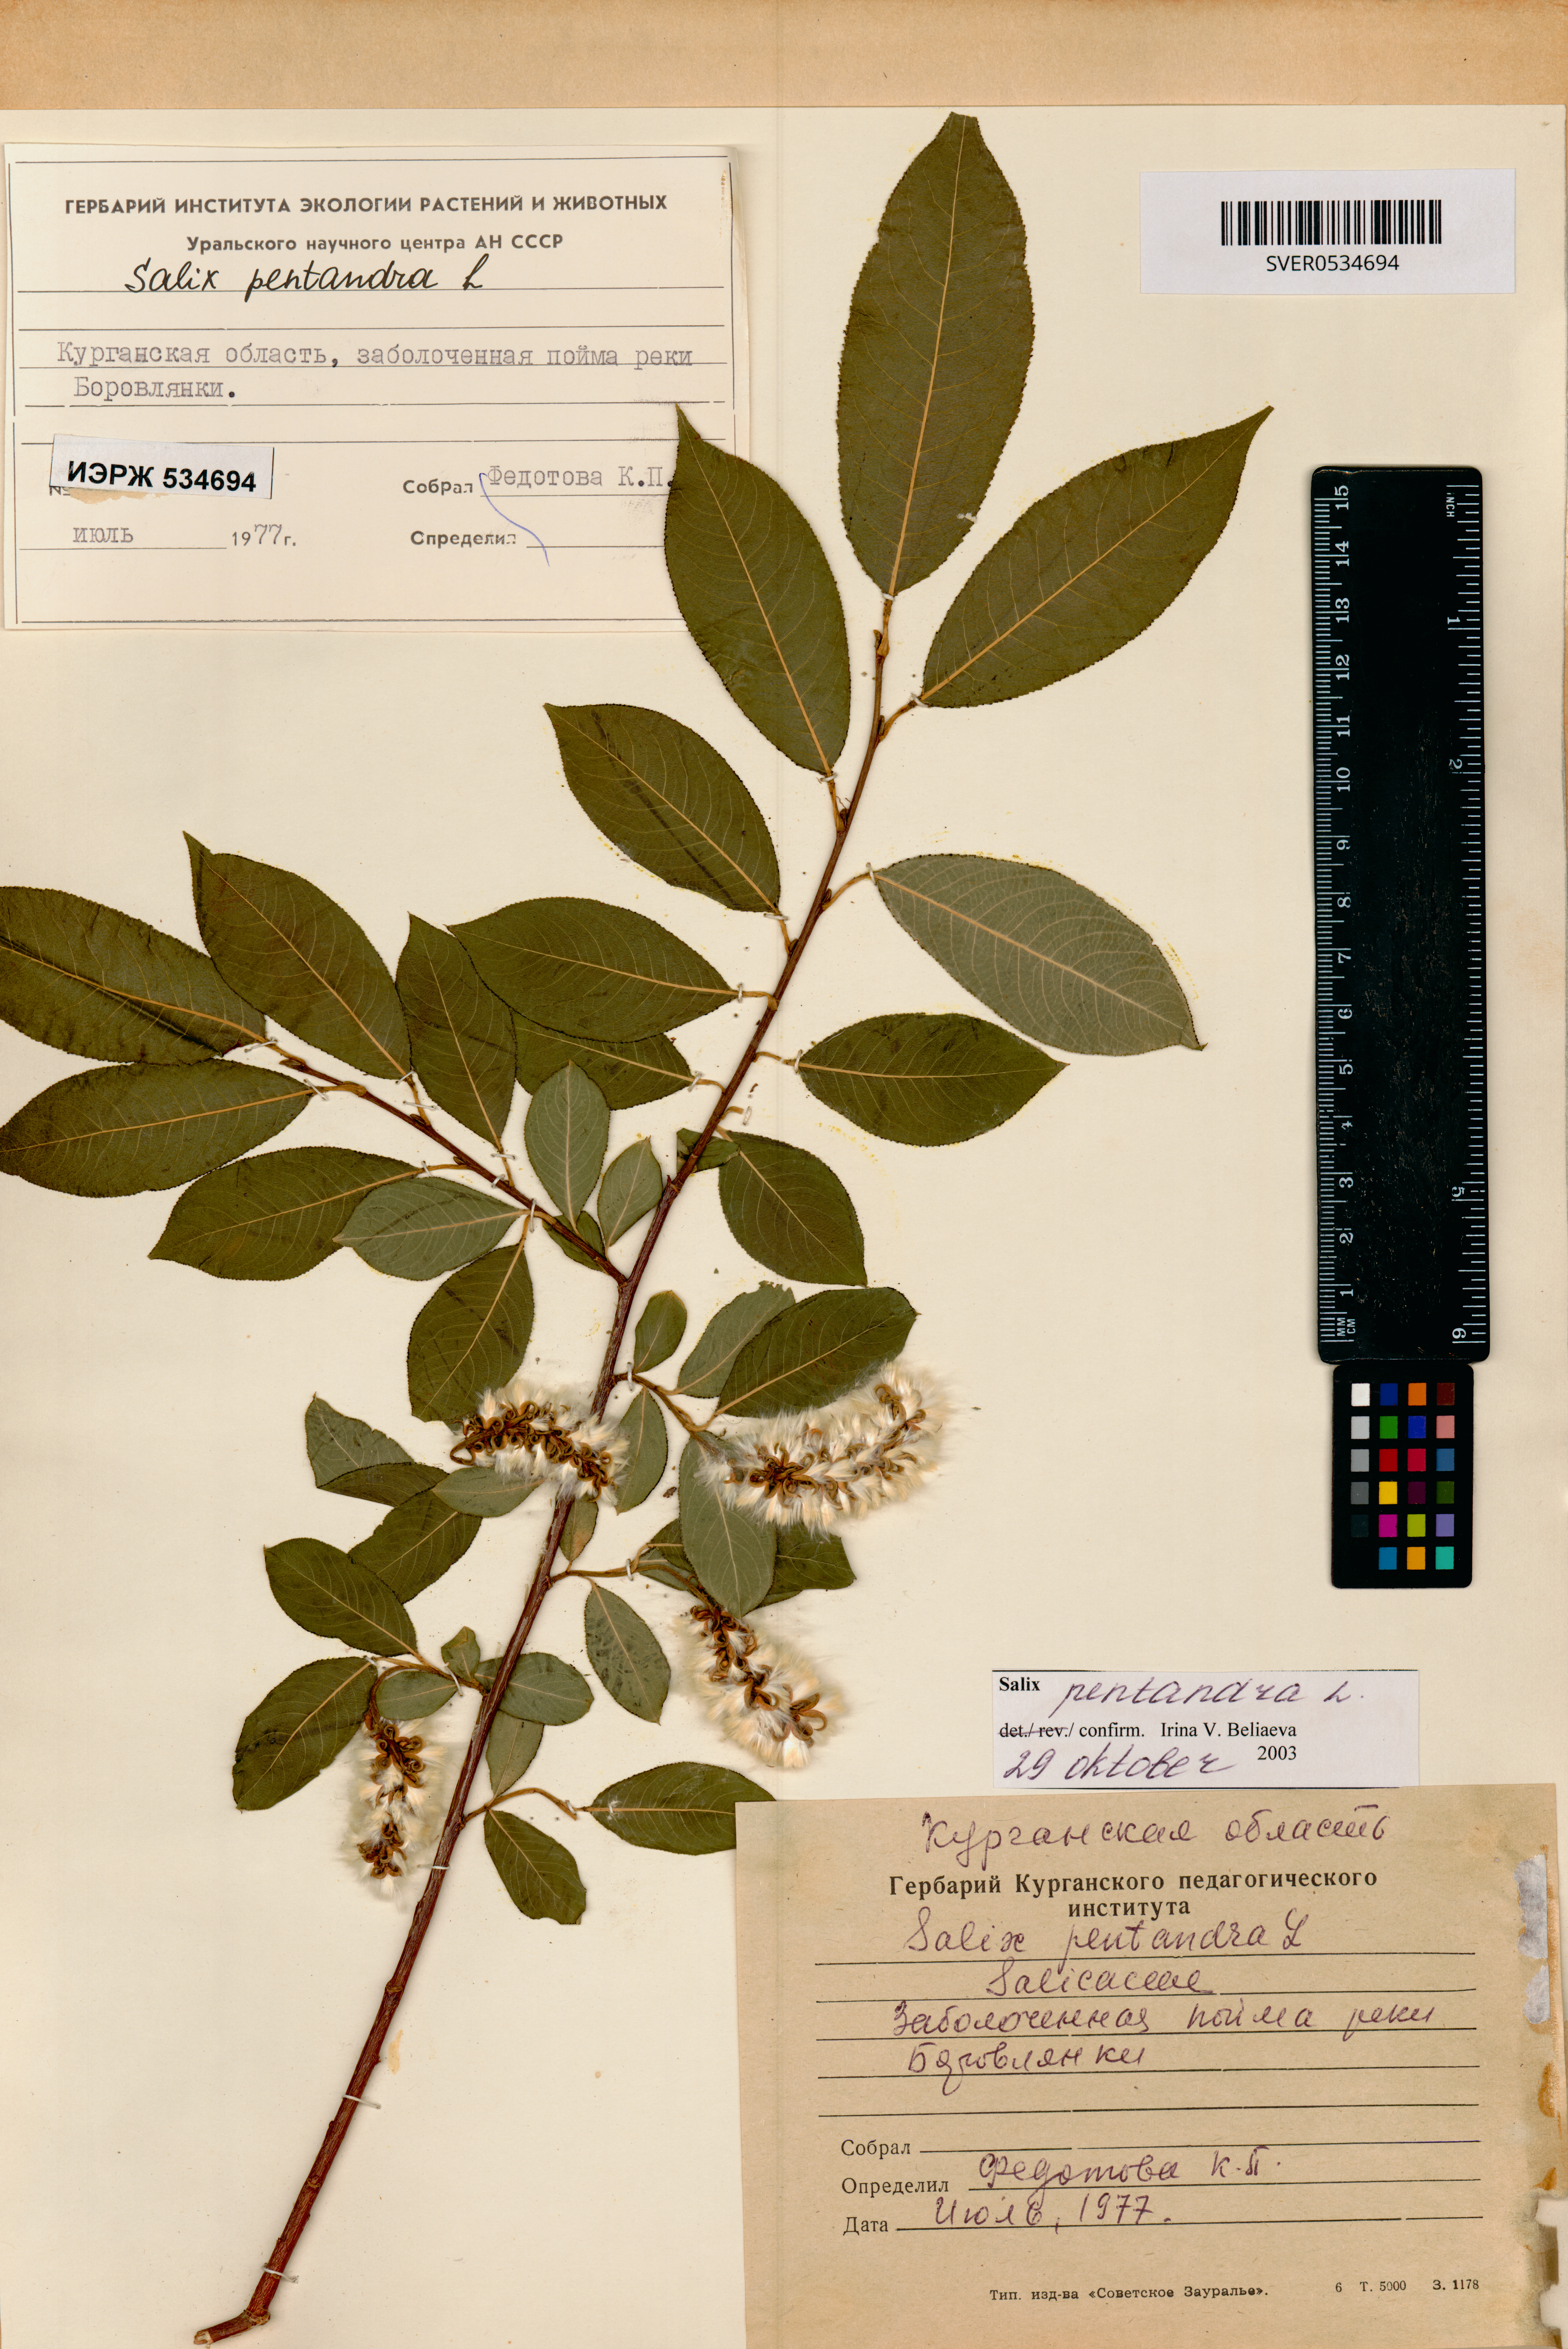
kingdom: Plantae
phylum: Tracheophyta
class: Magnoliopsida
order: Malpighiales
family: Salicaceae
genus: Salix
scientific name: Salix pentandra
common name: Bay willow
